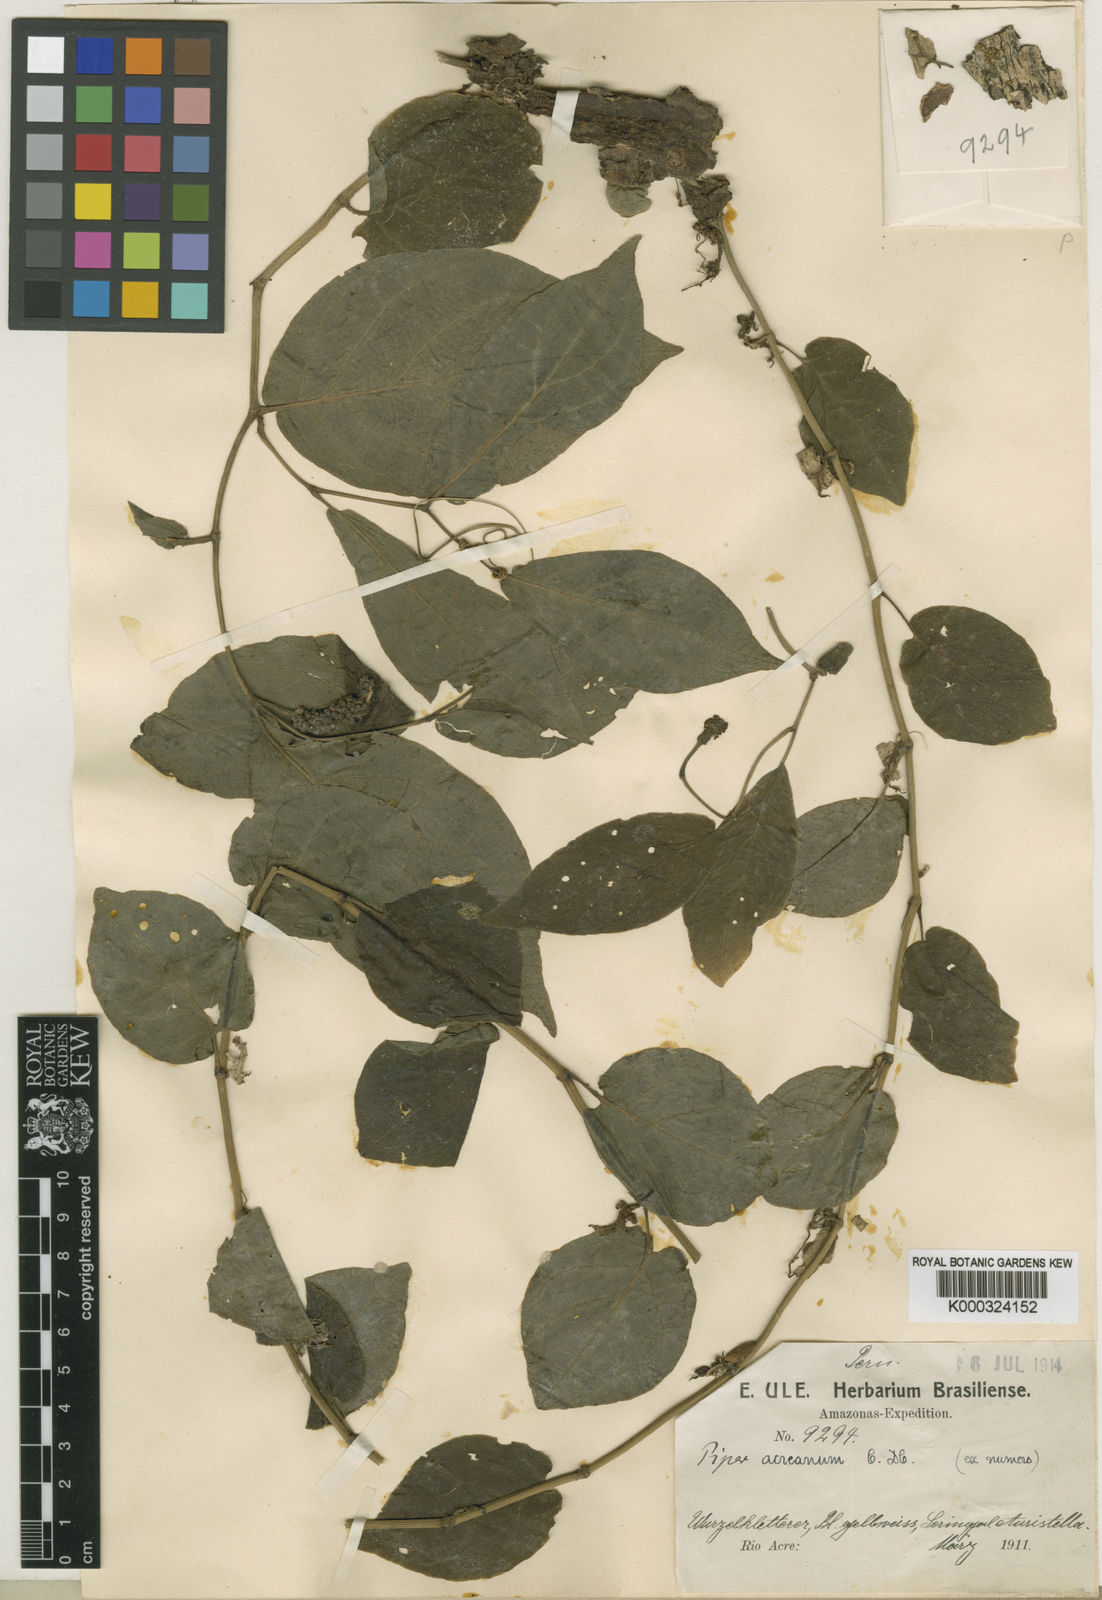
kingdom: Plantae
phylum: Tracheophyta
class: Magnoliopsida
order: Piperales
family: Piperaceae
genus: Piper
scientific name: Piper nematanthera
